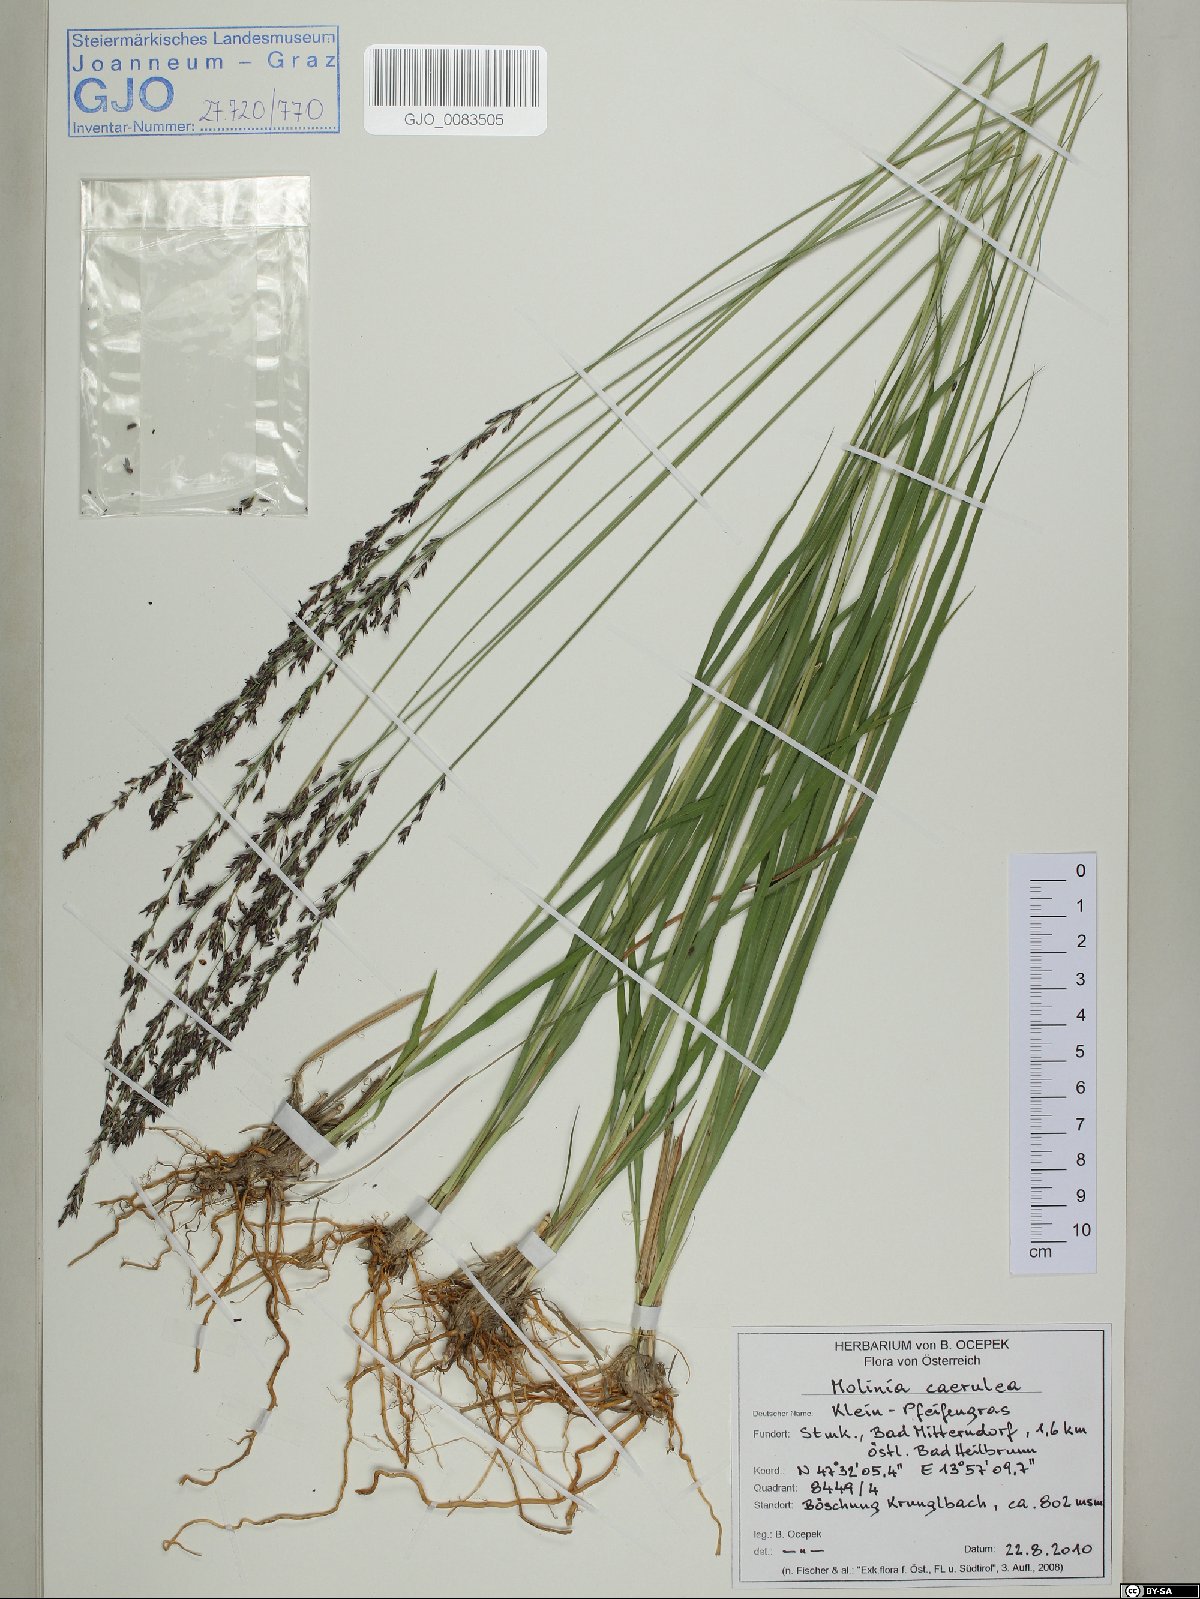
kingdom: Plantae
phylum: Tracheophyta
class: Liliopsida
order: Poales
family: Poaceae
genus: Molinia
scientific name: Molinia caerulea
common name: Purple moor-grass
